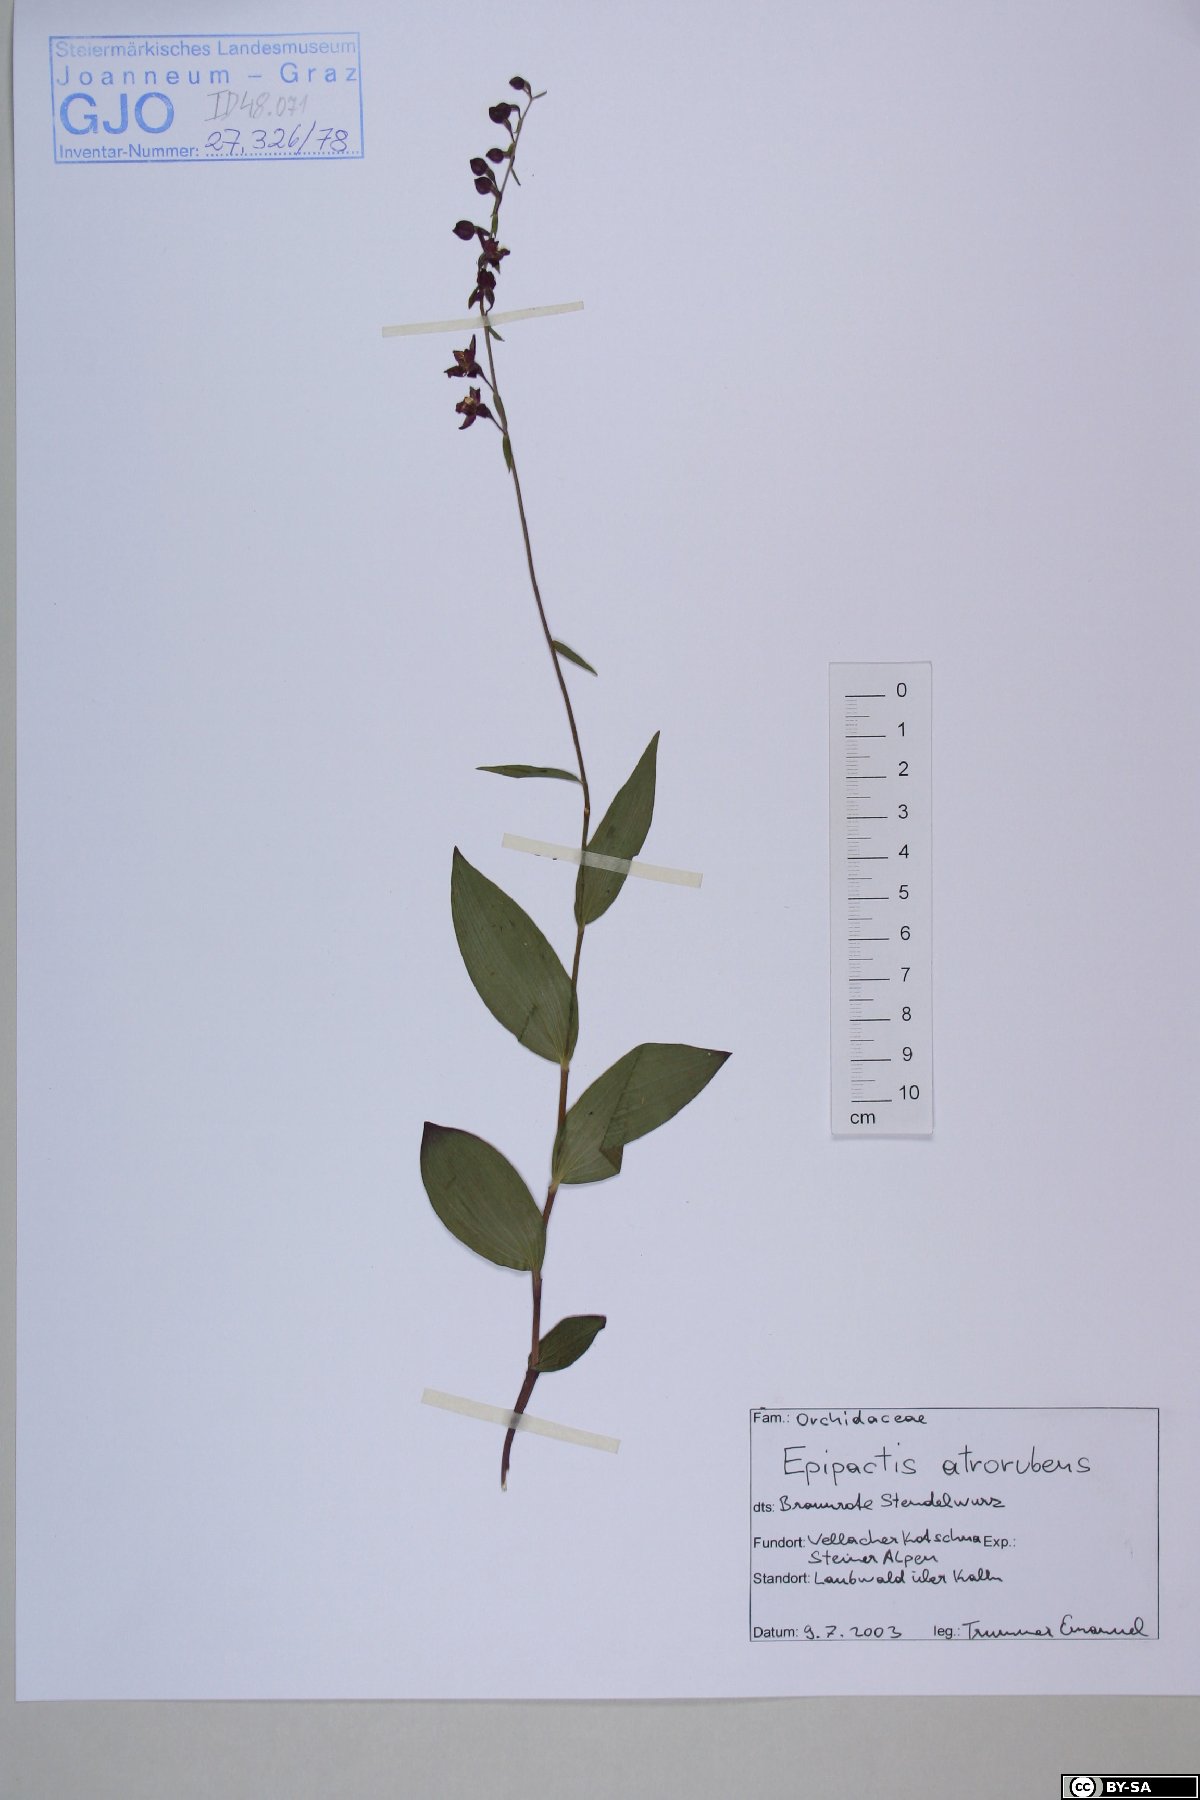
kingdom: Plantae
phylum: Tracheophyta
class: Liliopsida
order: Asparagales
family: Orchidaceae
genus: Epipactis
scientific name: Epipactis atrorubens
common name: Dark-red helleborine
